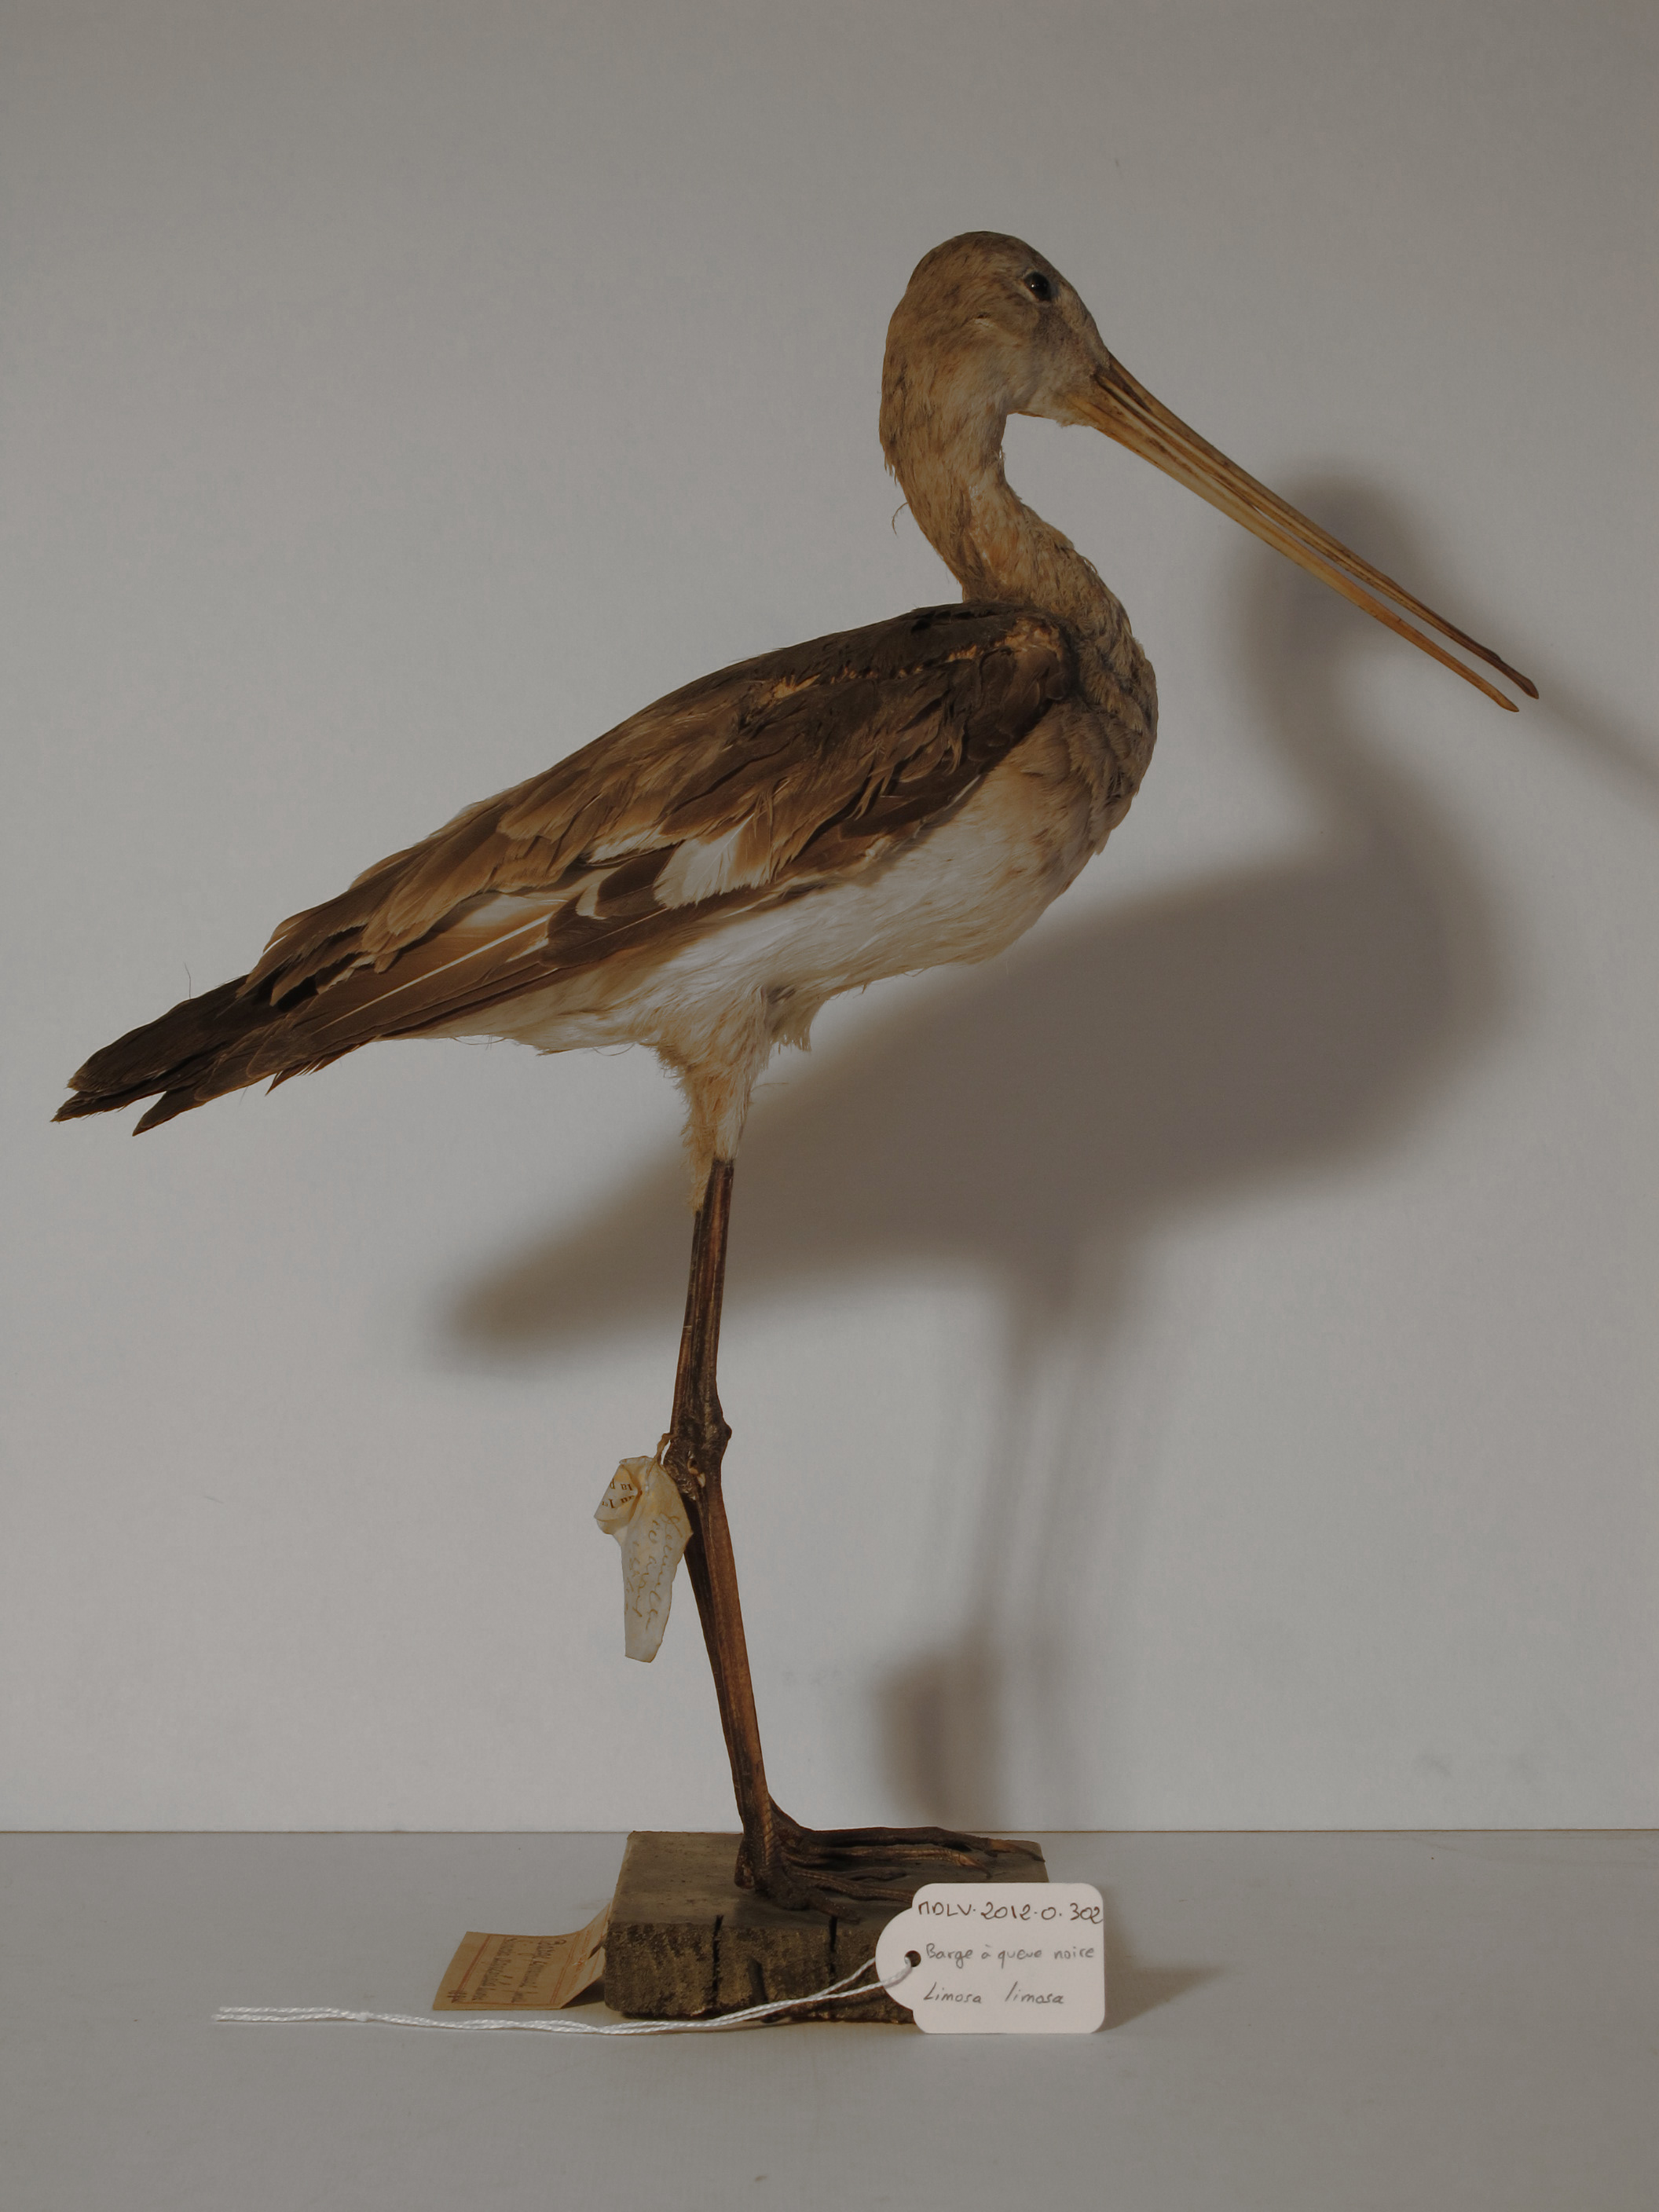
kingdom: Animalia
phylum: Chordata
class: Aves
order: Charadriiformes
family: Scolopacidae
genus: Limosa
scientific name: Limosa limosa
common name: Black-tailed Godwit
